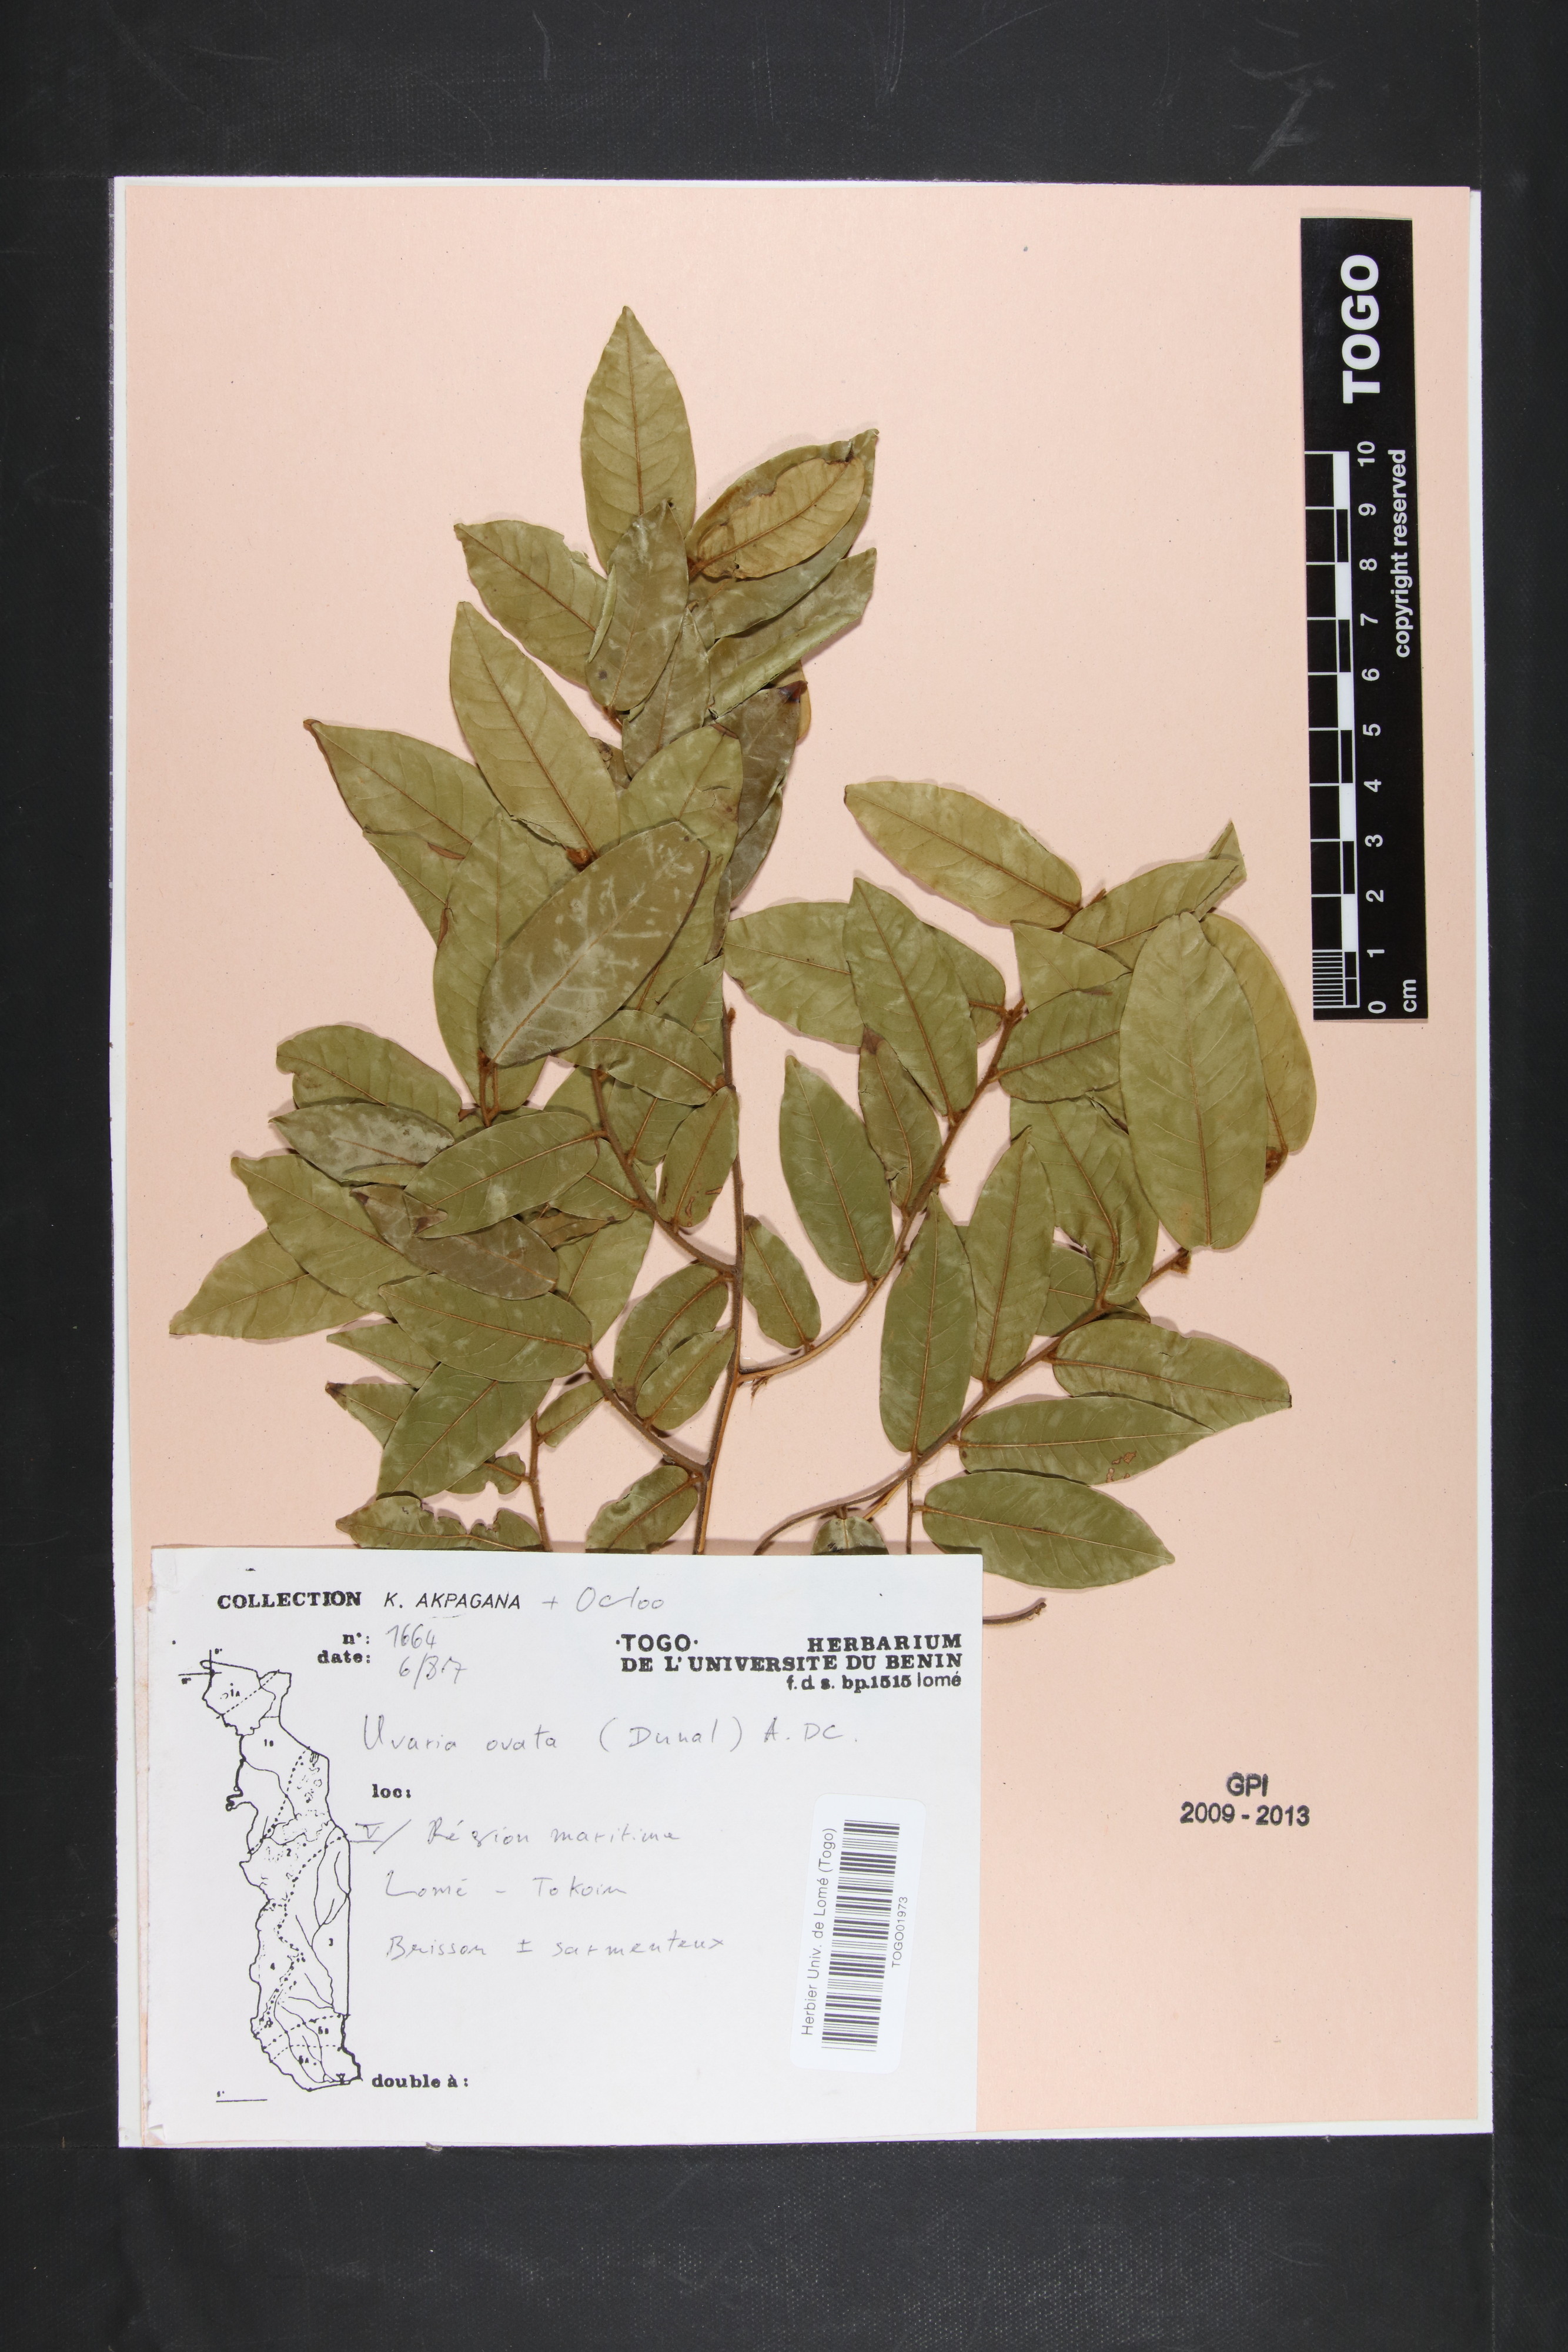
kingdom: Plantae
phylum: Tracheophyta
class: Magnoliopsida
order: Magnoliales
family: Annonaceae
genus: Uvaria
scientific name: Uvaria ovata
